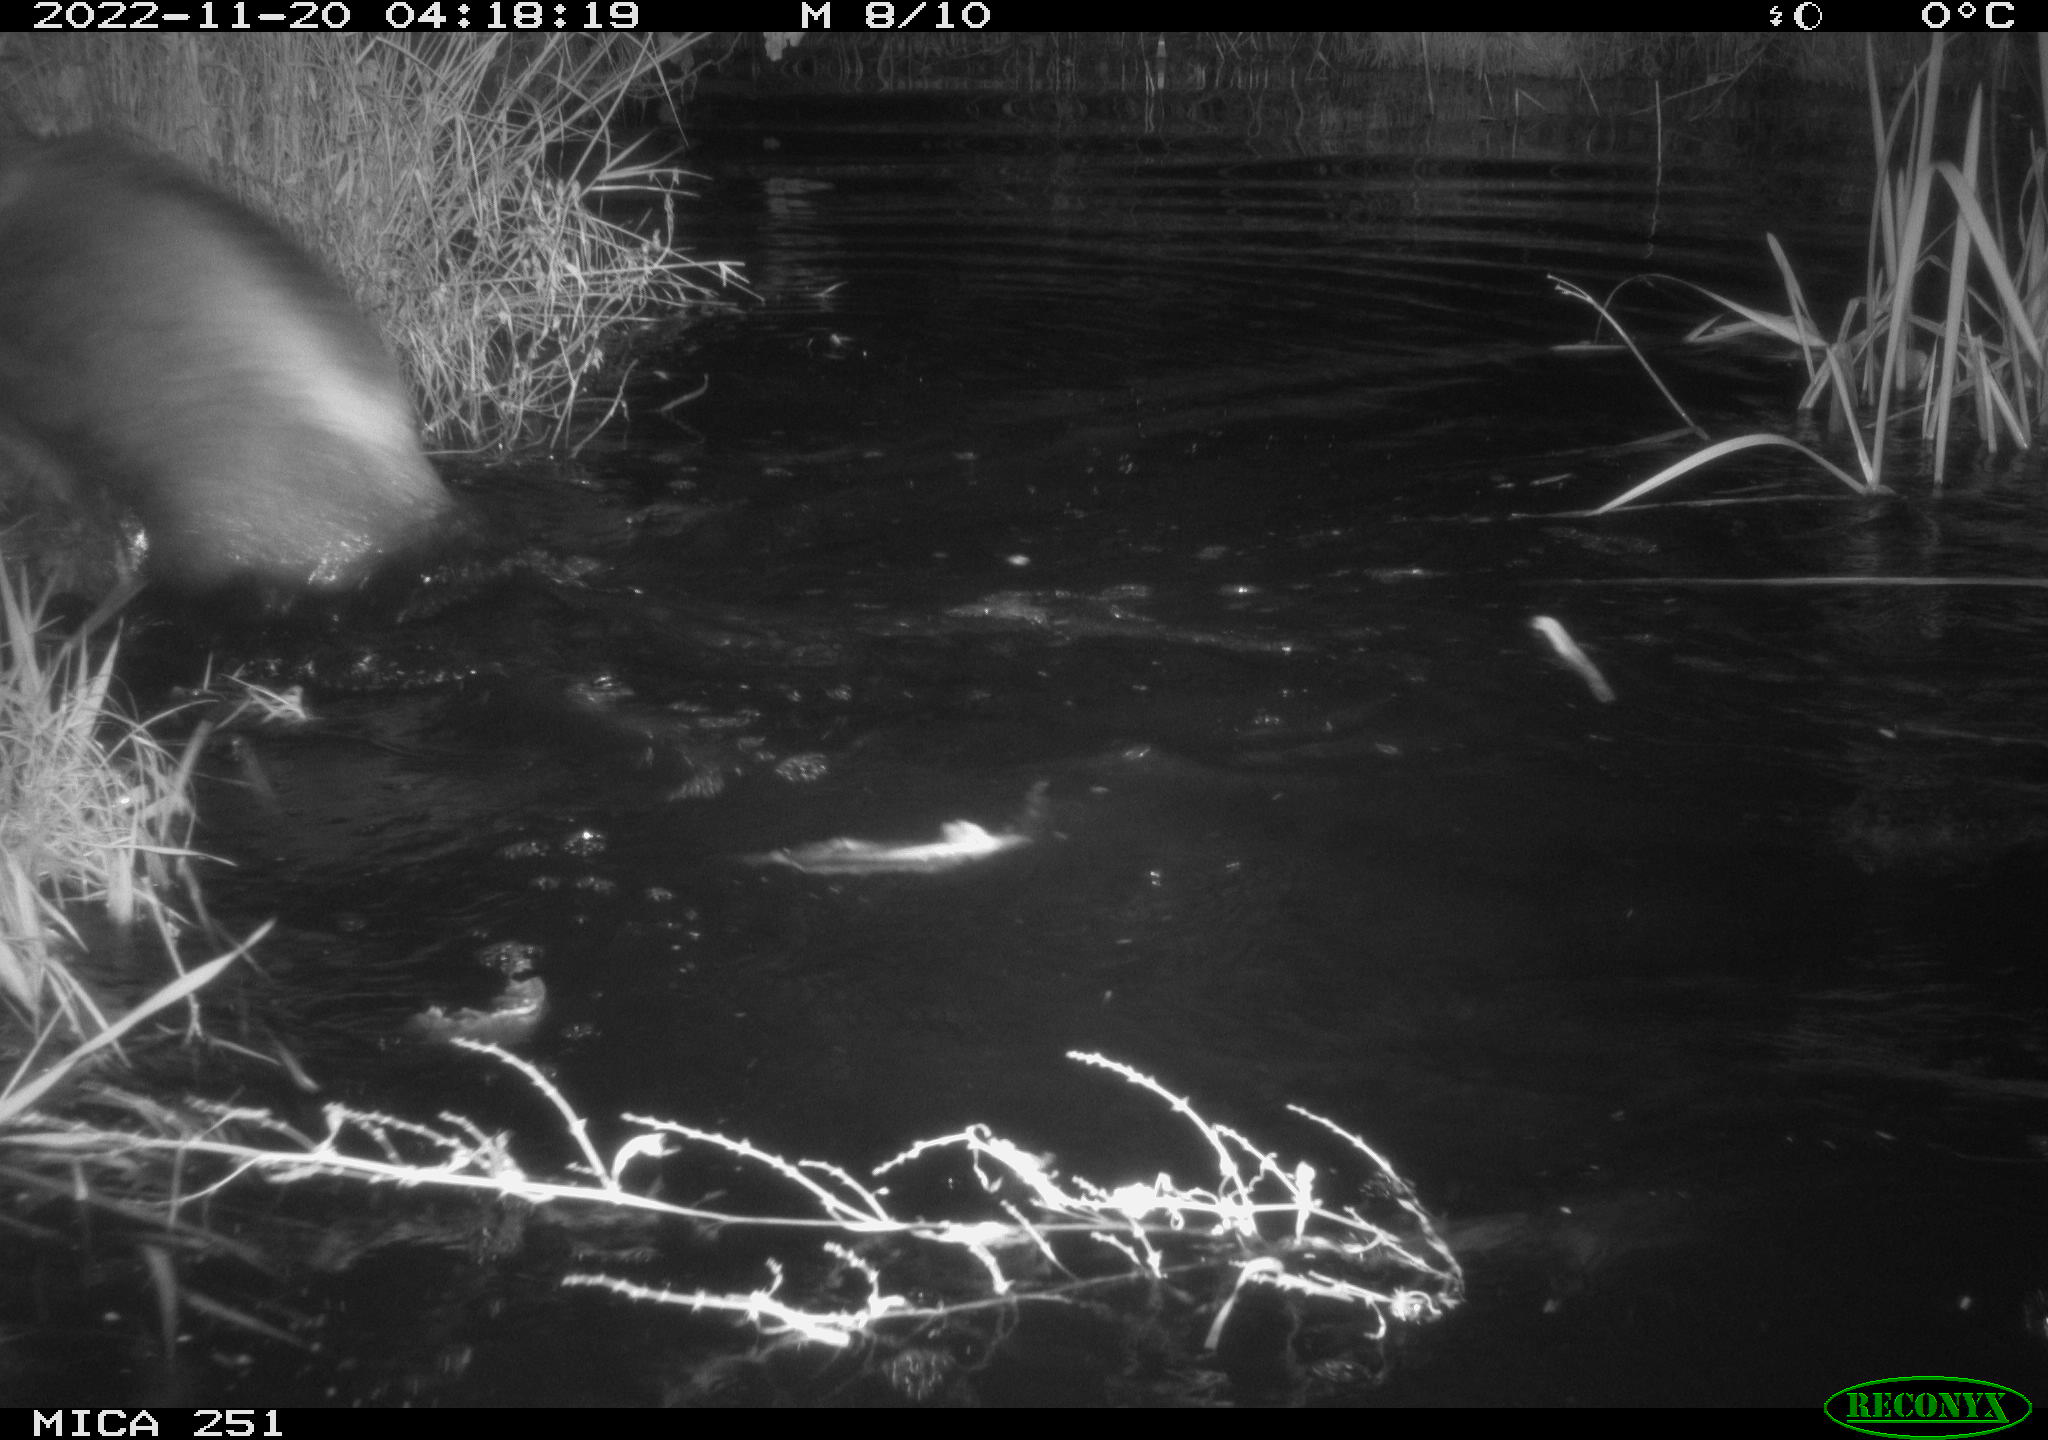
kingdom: Animalia
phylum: Chordata
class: Mammalia
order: Artiodactyla
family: Suidae
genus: Sus
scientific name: Sus scrofa
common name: Wild boar
